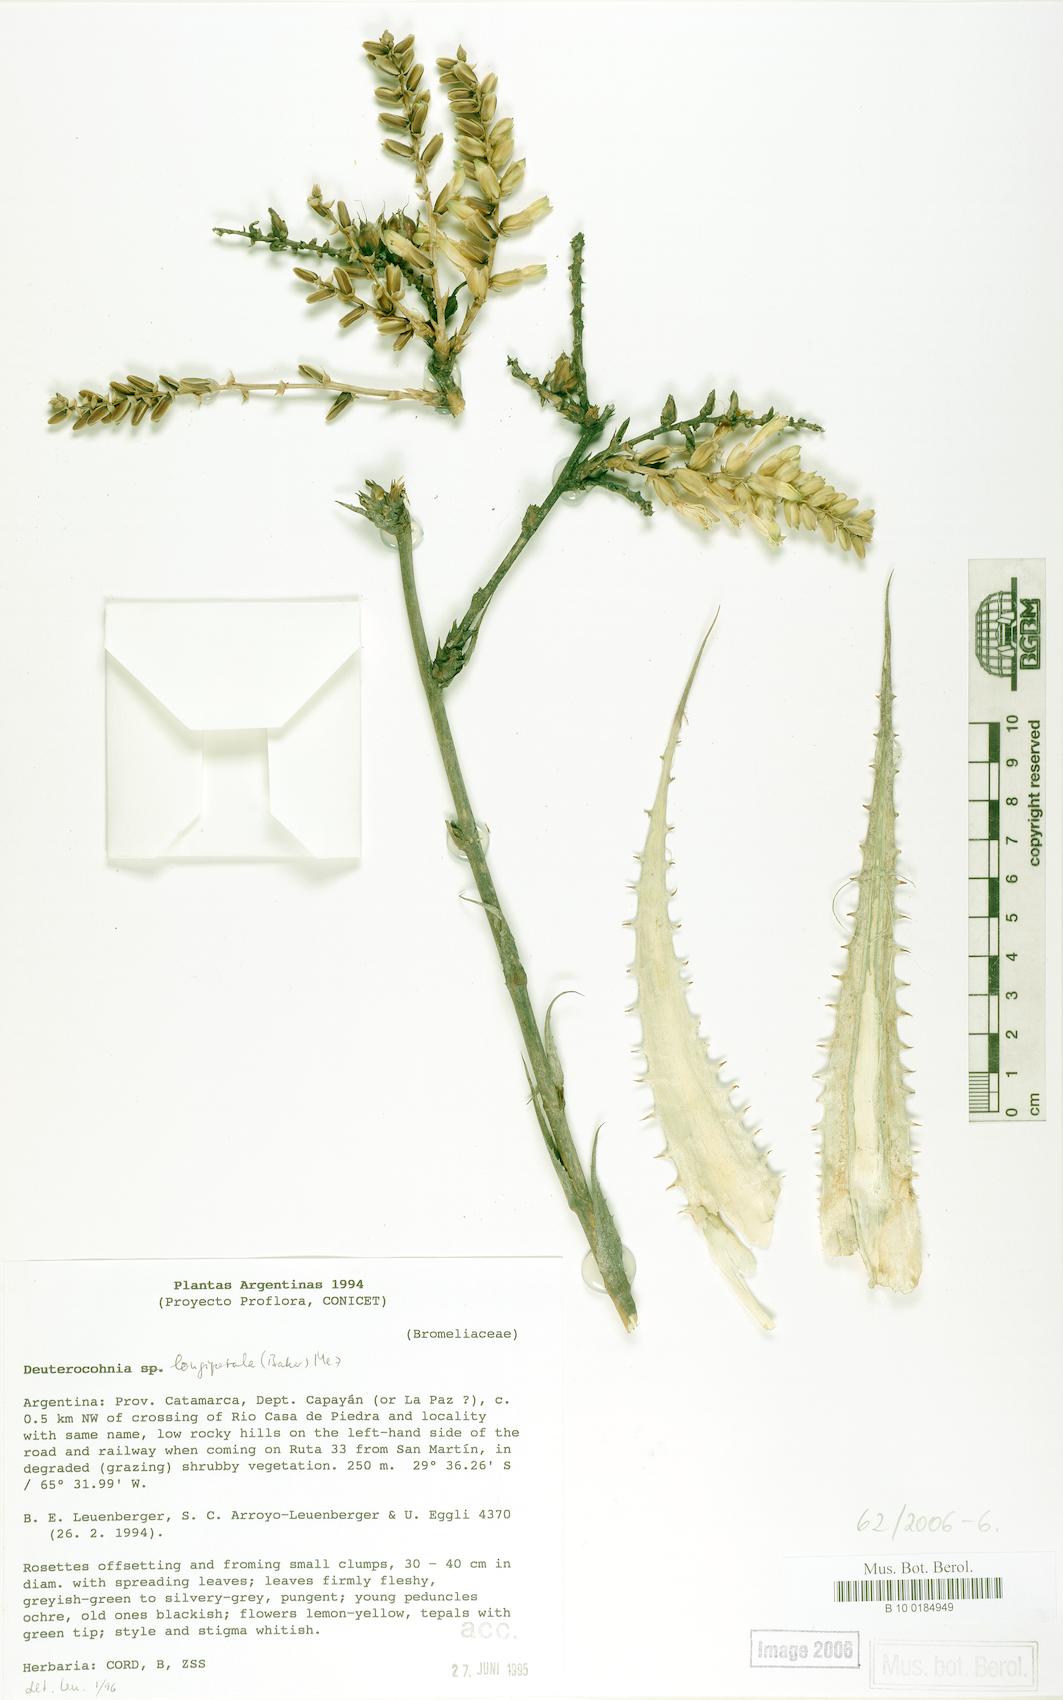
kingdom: Plantae
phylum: Tracheophyta
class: Liliopsida
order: Poales
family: Bromeliaceae
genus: Deuterocohnia
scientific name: Deuterocohnia longipetala
